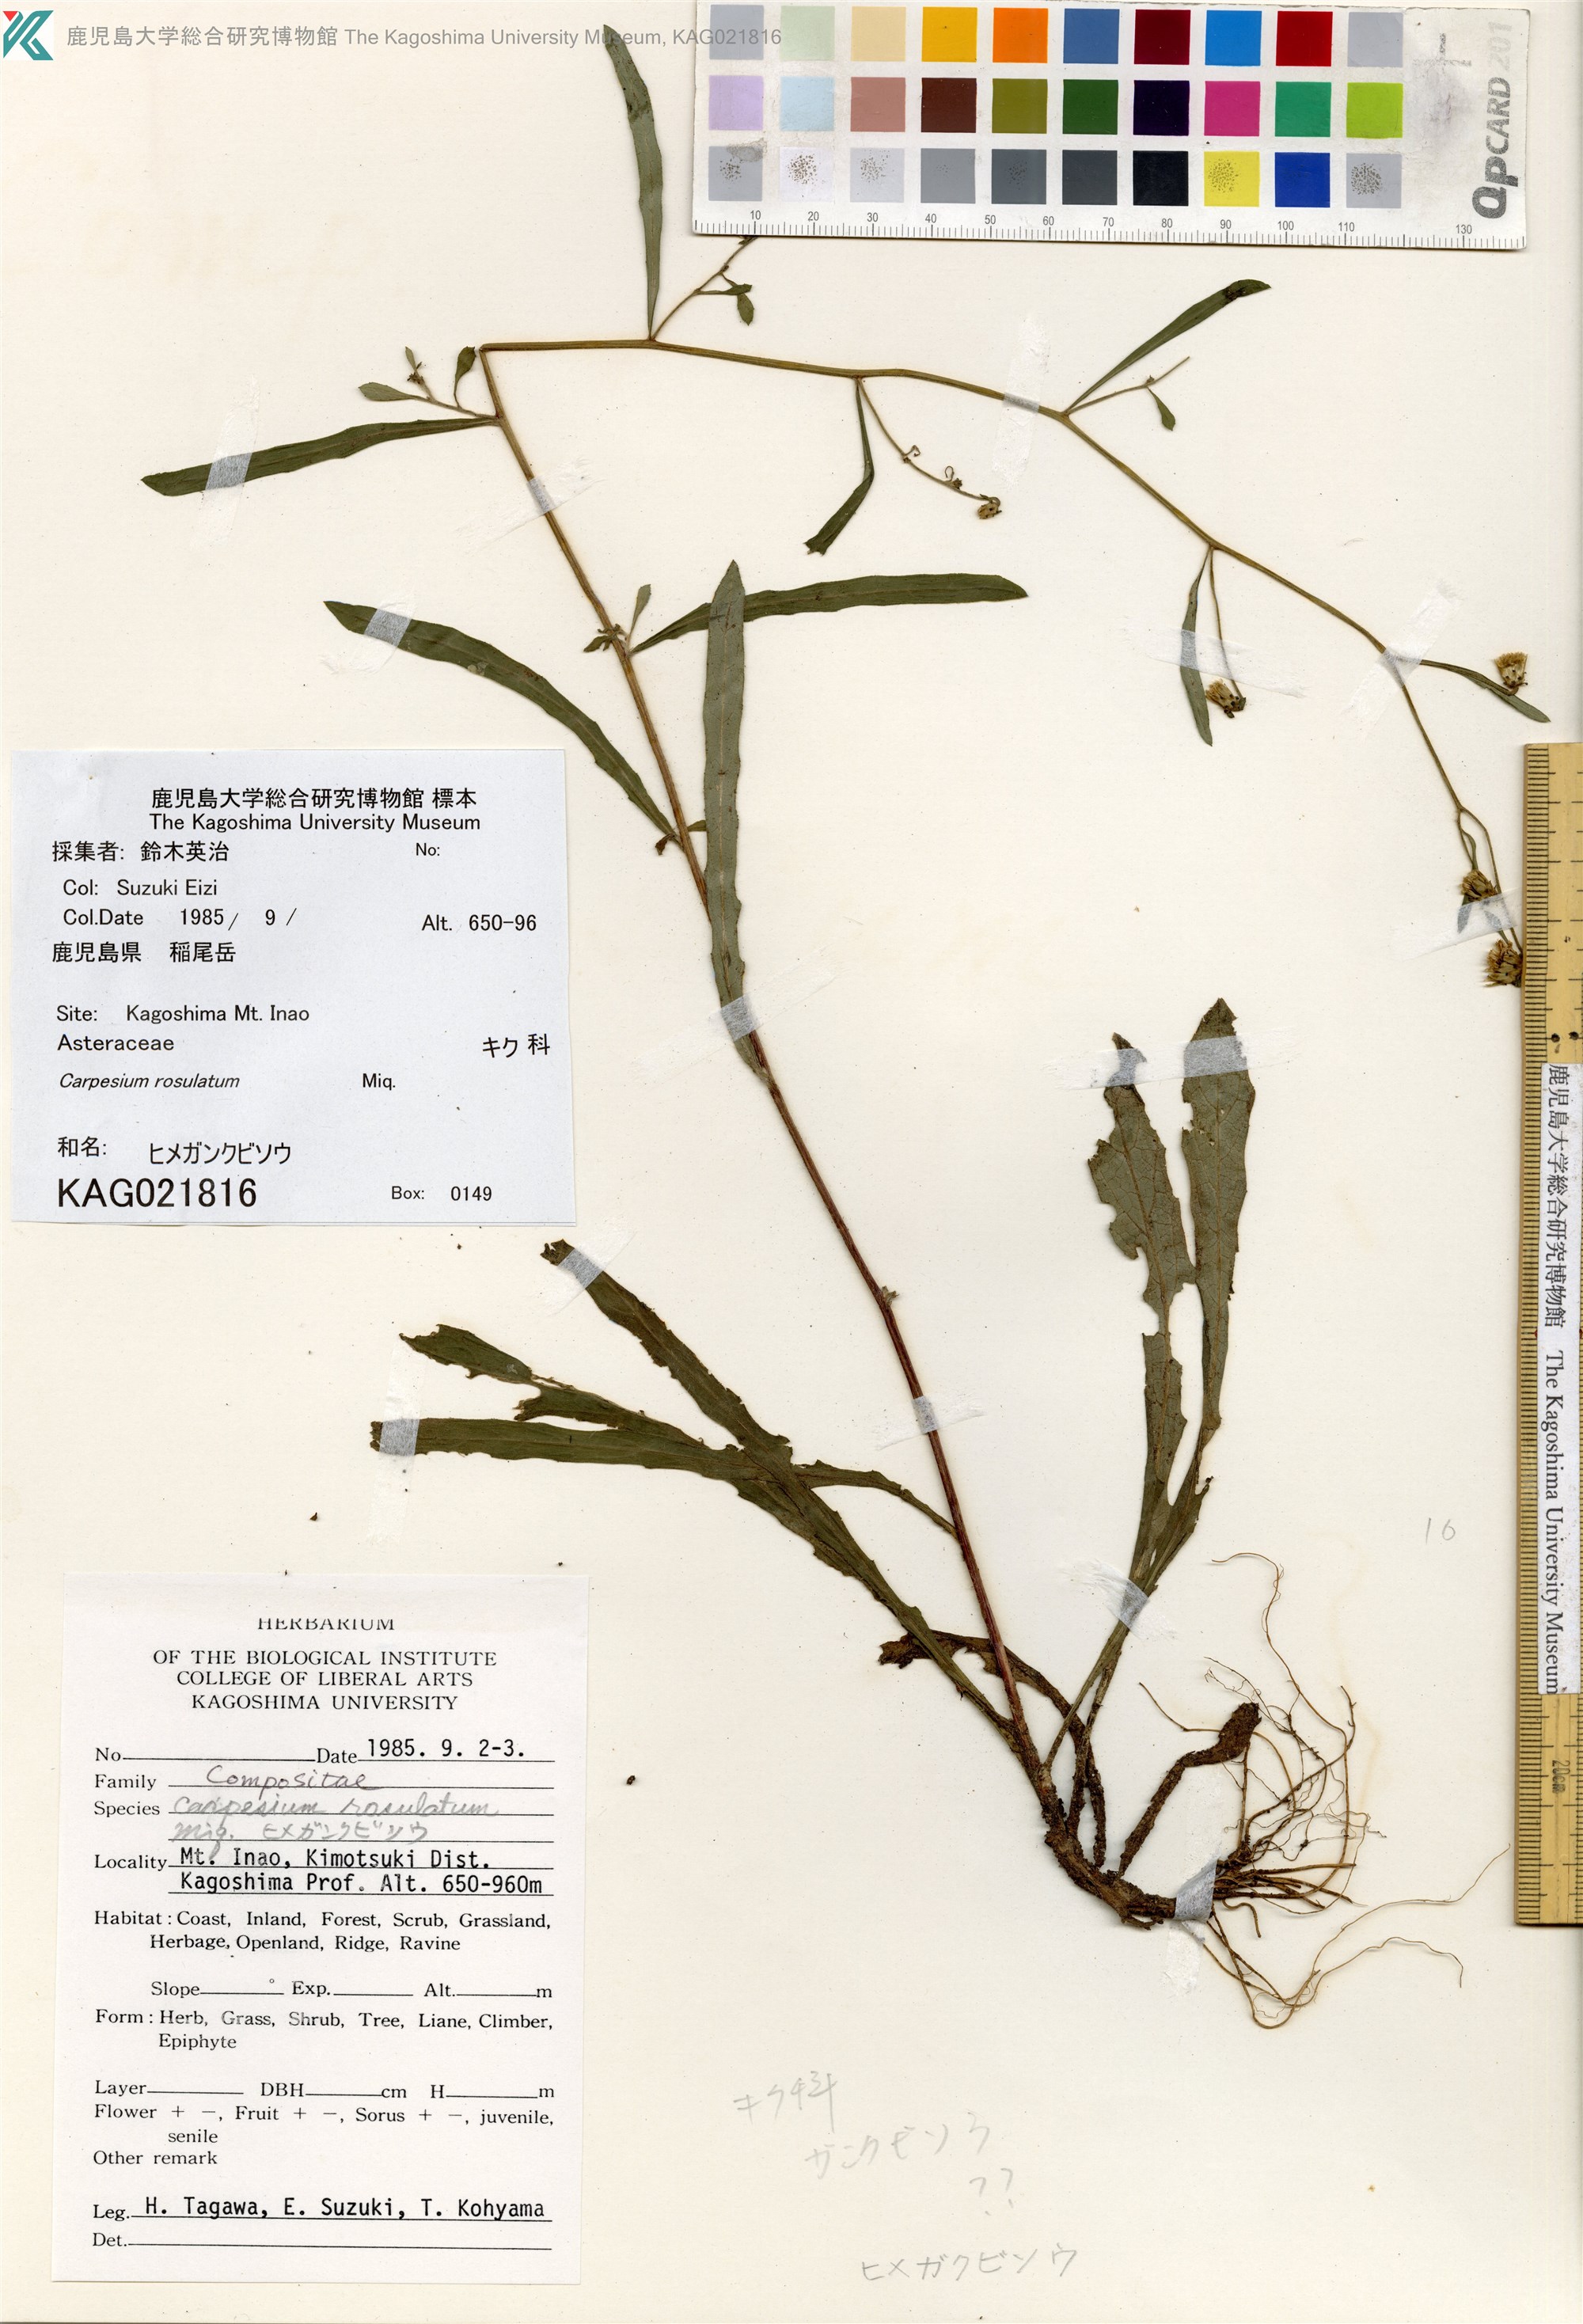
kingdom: Plantae
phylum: Tracheophyta
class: Magnoliopsida
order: Asterales
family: Asteraceae
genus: Carpesium
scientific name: Carpesium rosulatum
